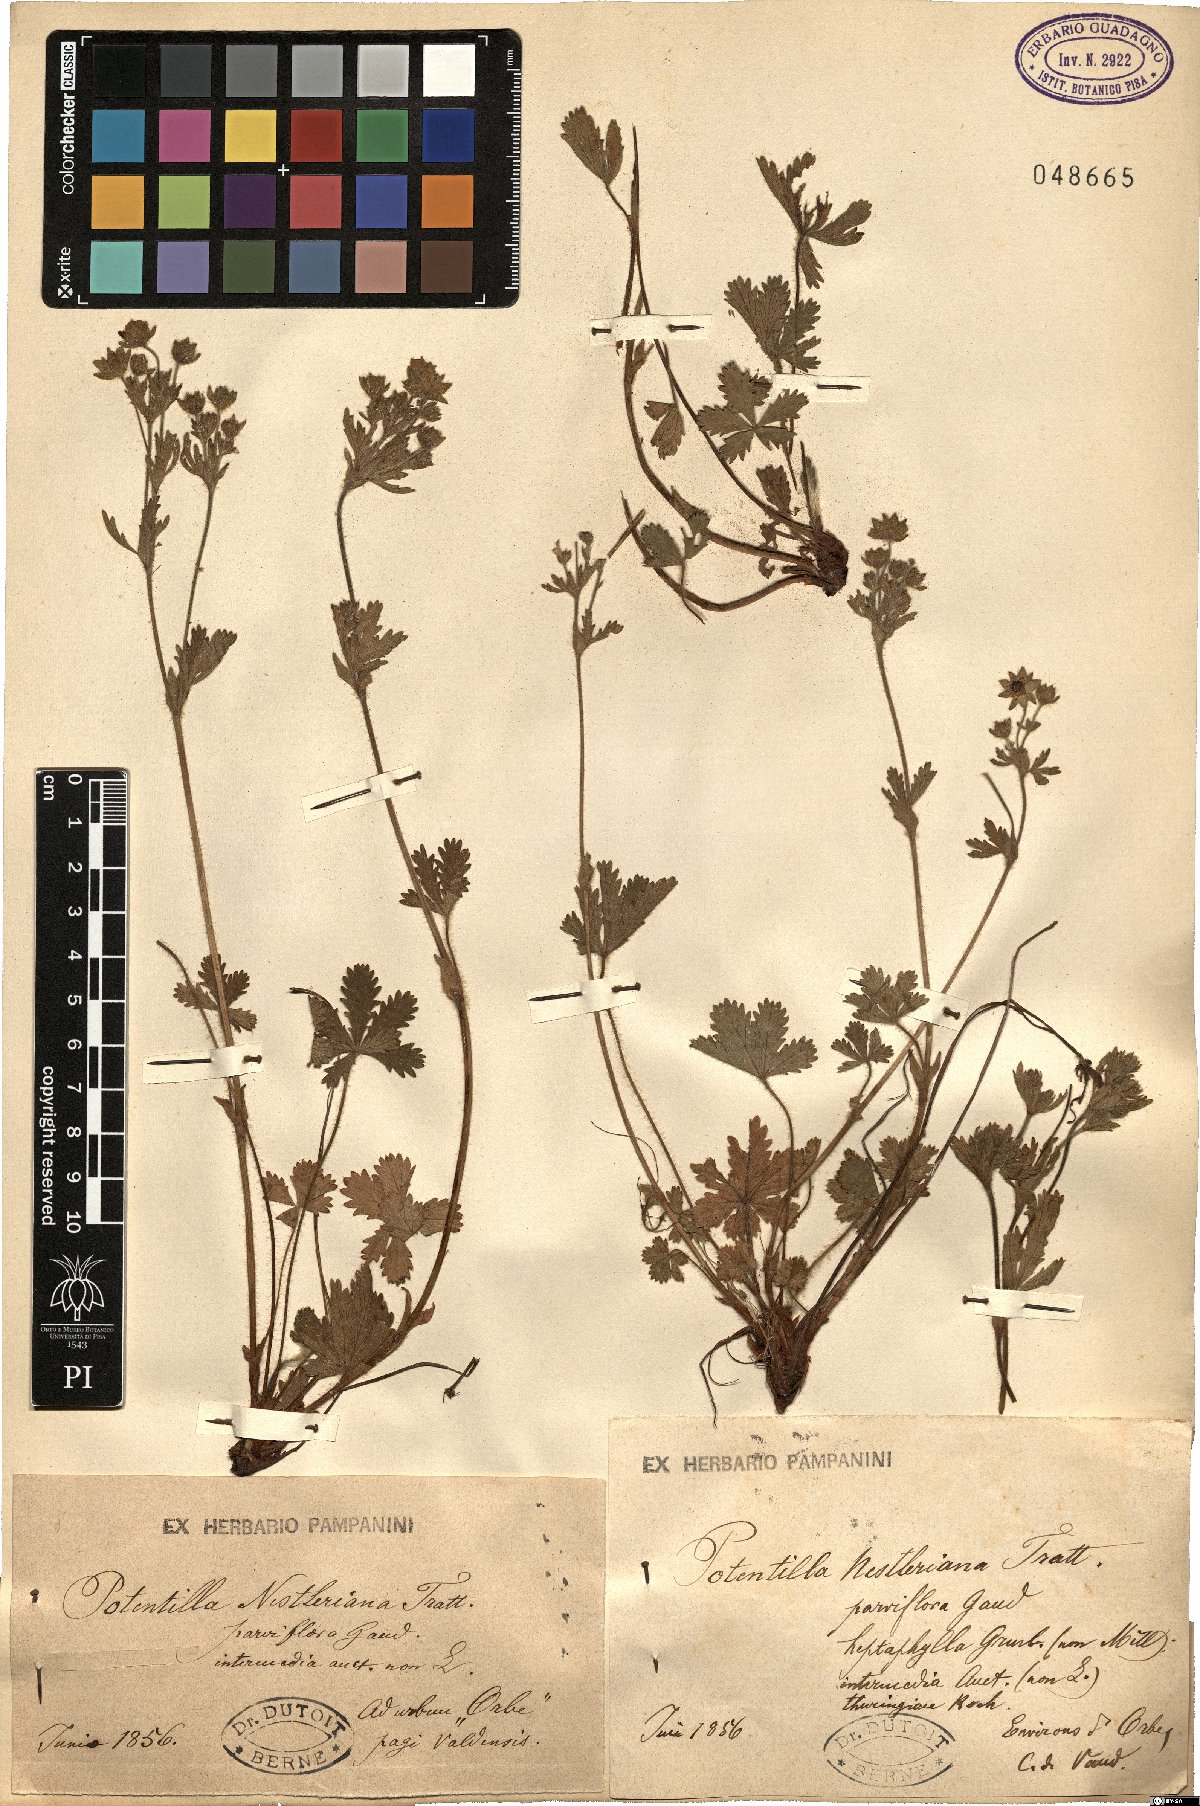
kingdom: Plantae
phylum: Tracheophyta
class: Magnoliopsida
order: Rosales
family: Rosaceae
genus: Potentilla
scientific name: Potentilla thuringiaca
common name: European cinquefoil
